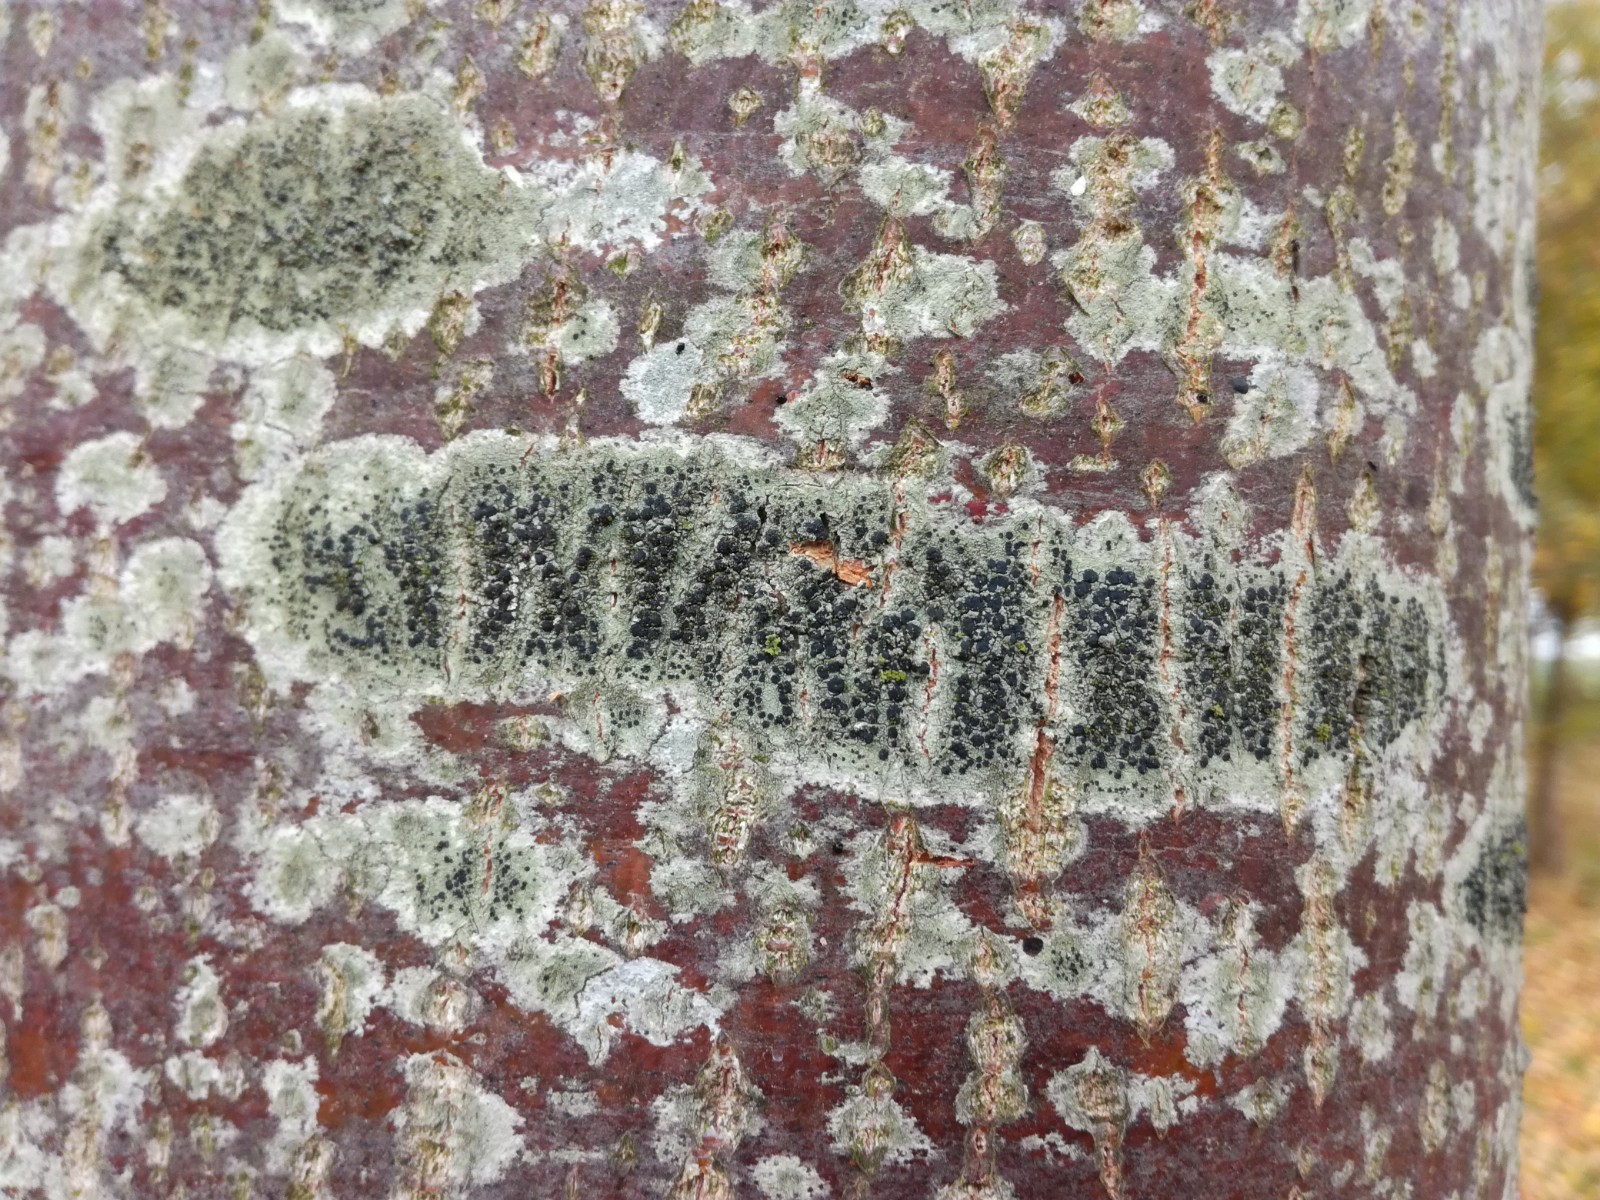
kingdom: Fungi
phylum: Ascomycota
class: Lecanoromycetes
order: Lecanorales
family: Lecanoraceae
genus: Lecidella
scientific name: Lecidella elaeochroma
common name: grågrøn skivelav
